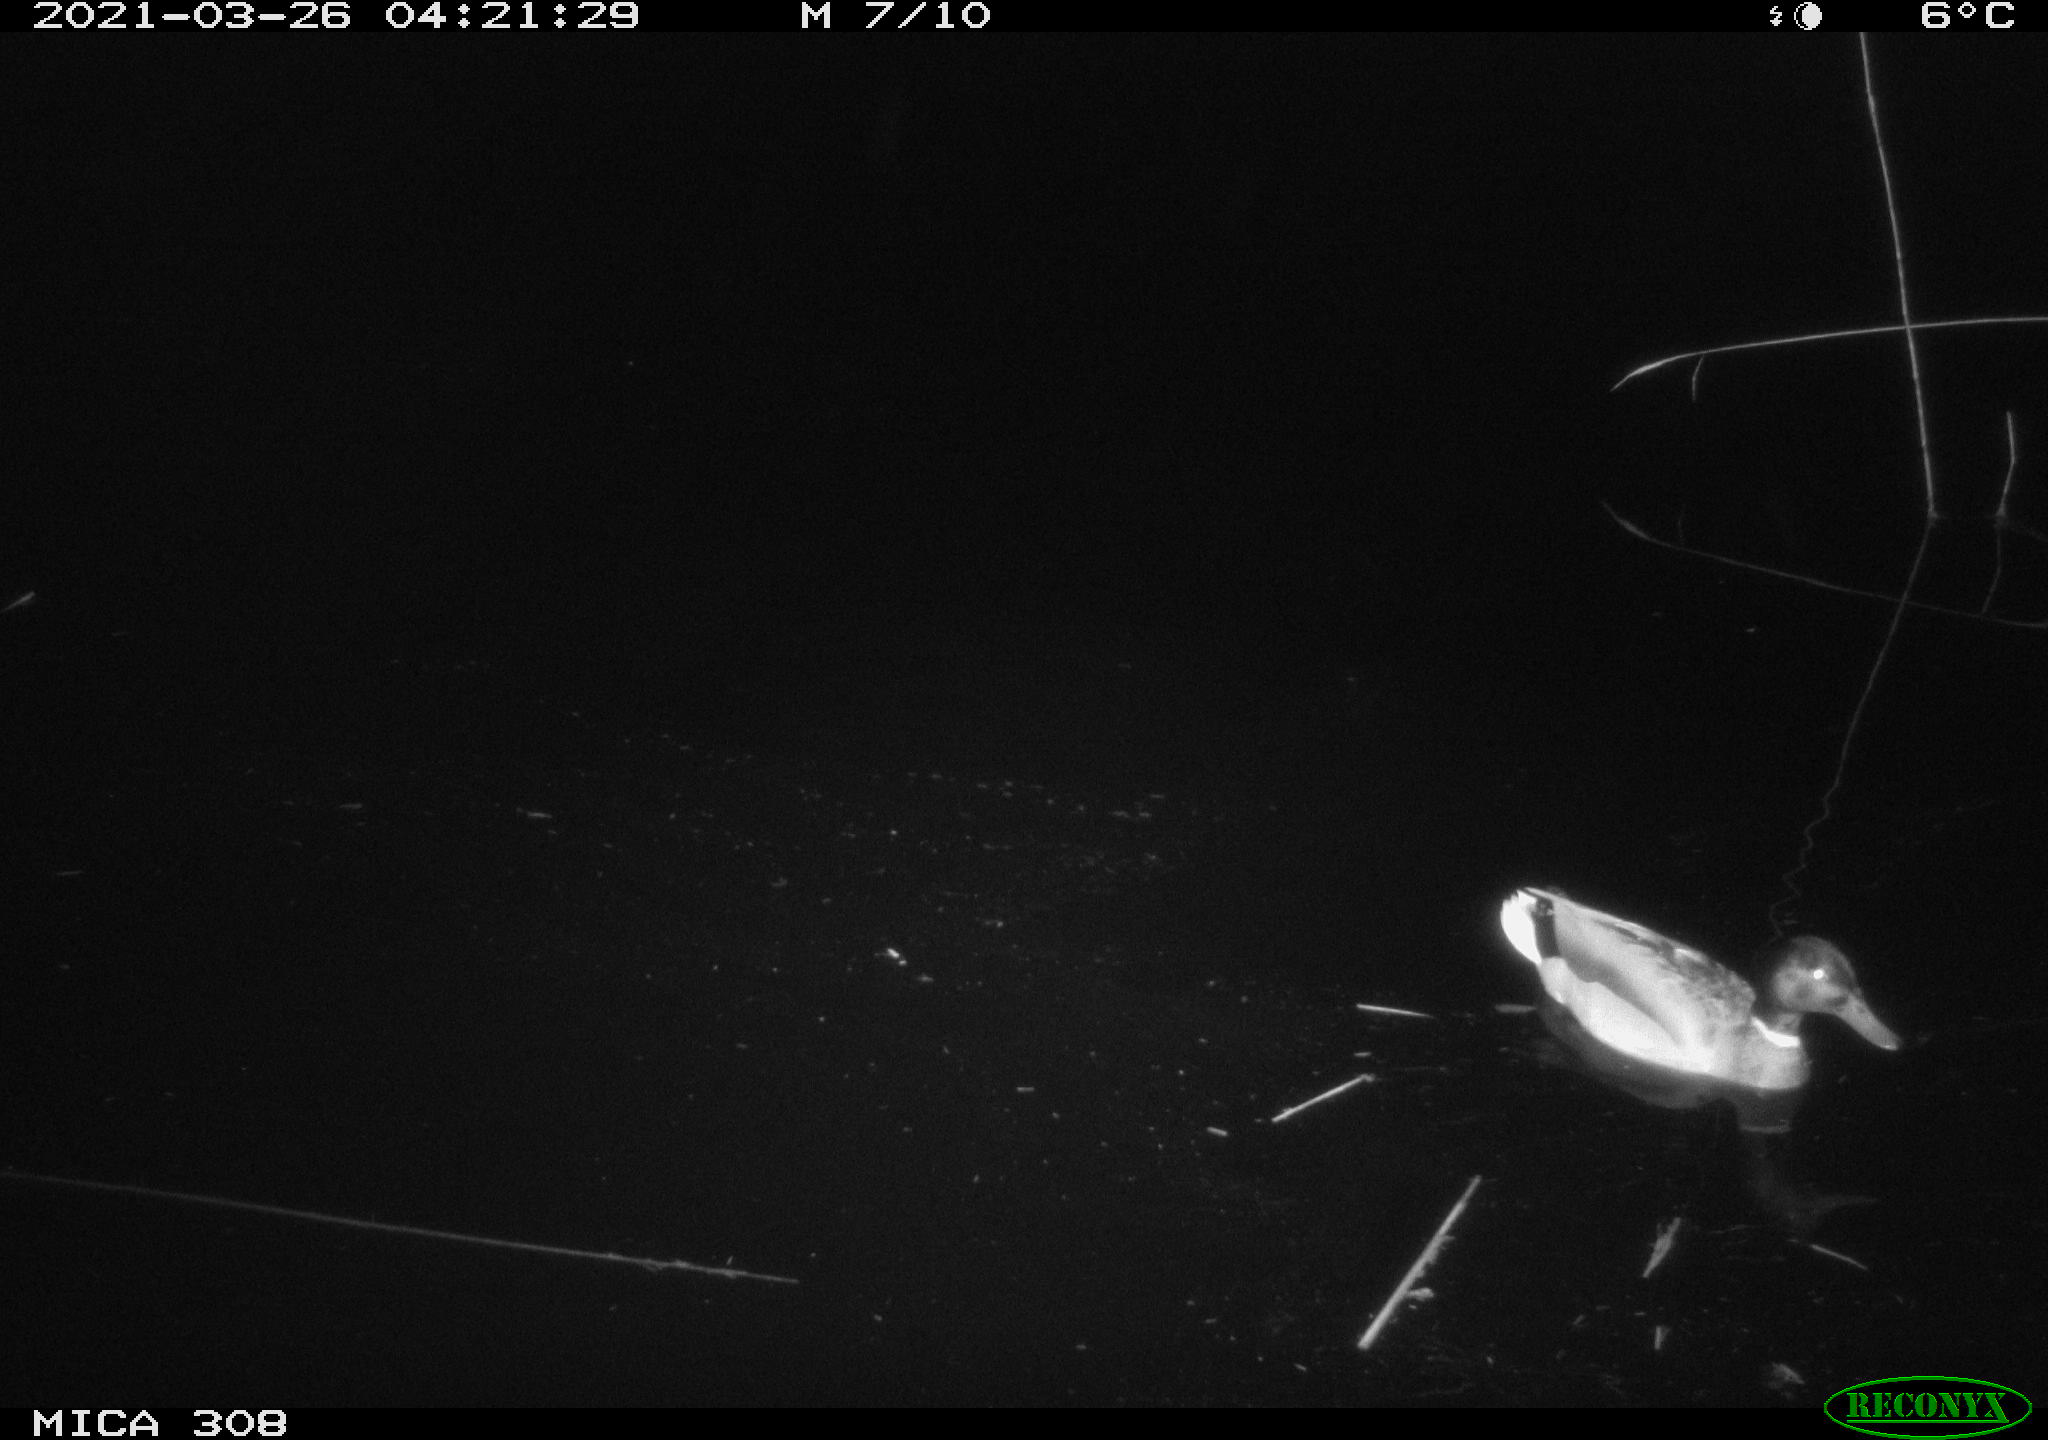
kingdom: Animalia
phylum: Chordata
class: Aves
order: Anseriformes
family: Anatidae
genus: Anas
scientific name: Anas platyrhynchos
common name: Mallard
